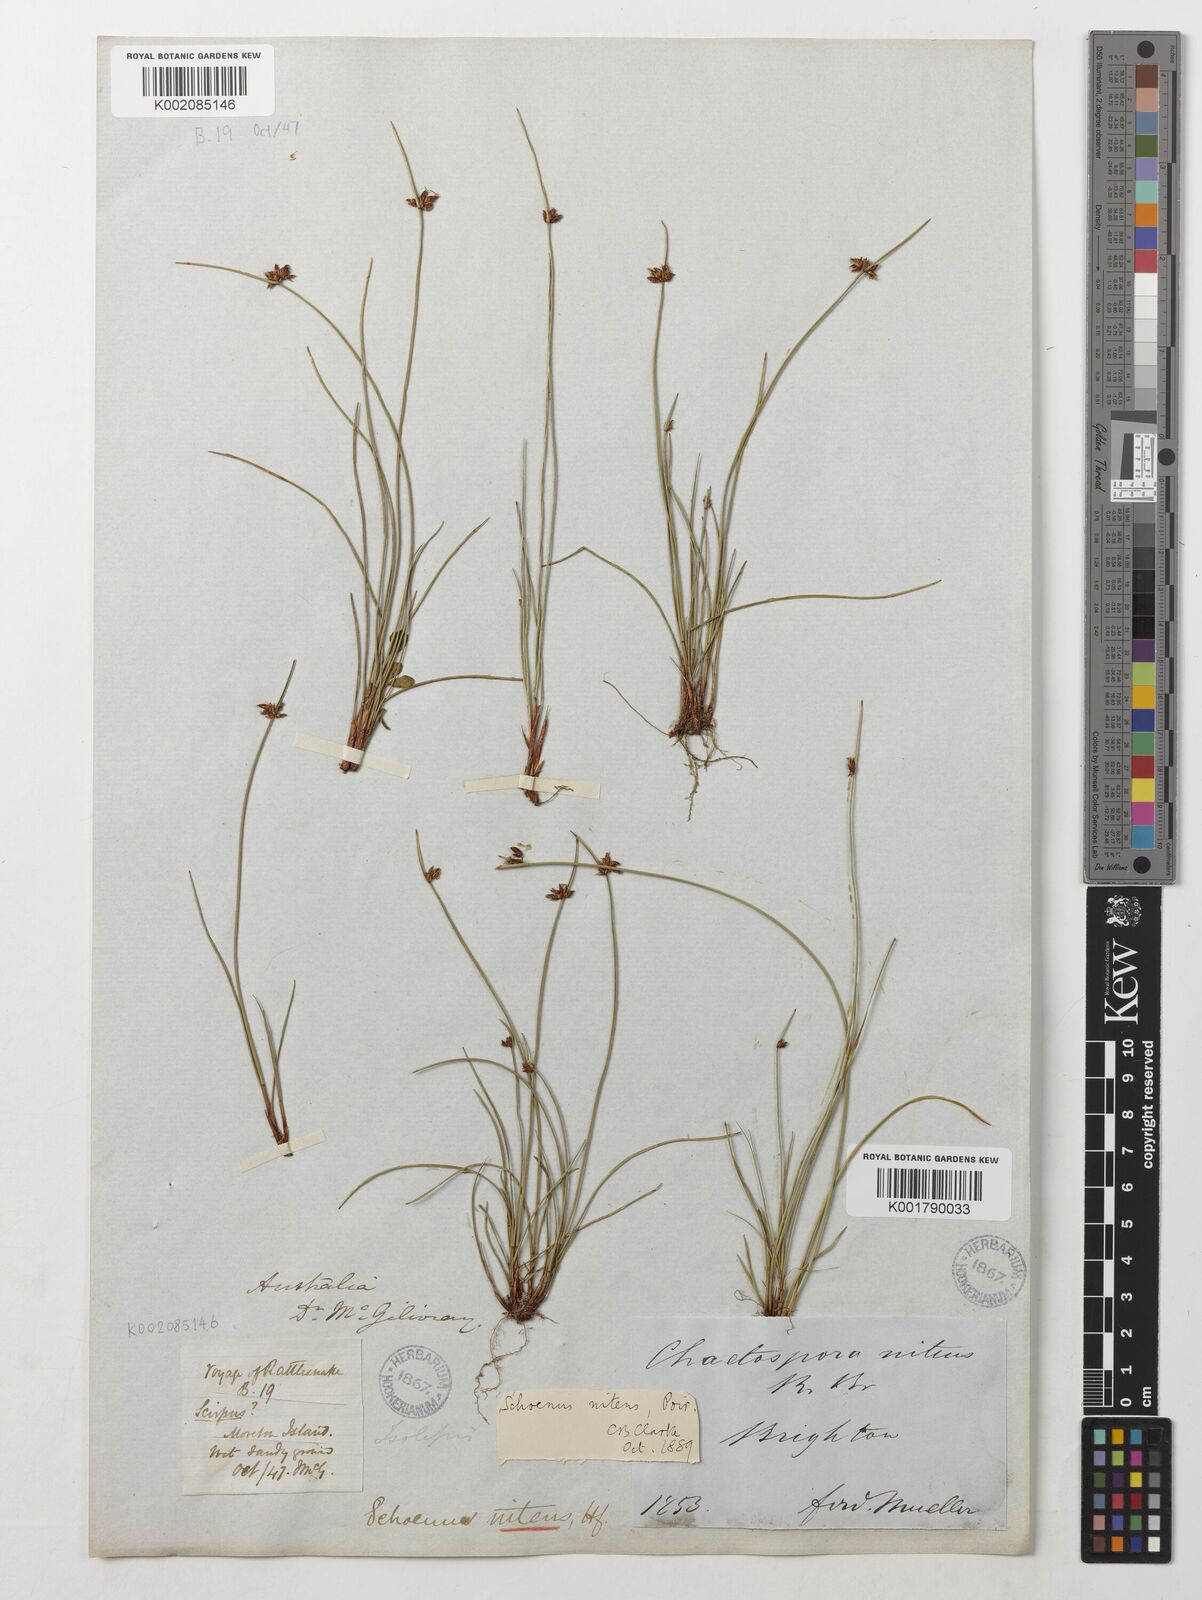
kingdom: Plantae
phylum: Tracheophyta
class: Liliopsida
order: Poales
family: Cyperaceae
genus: Schoenus
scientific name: Schoenus nitens
